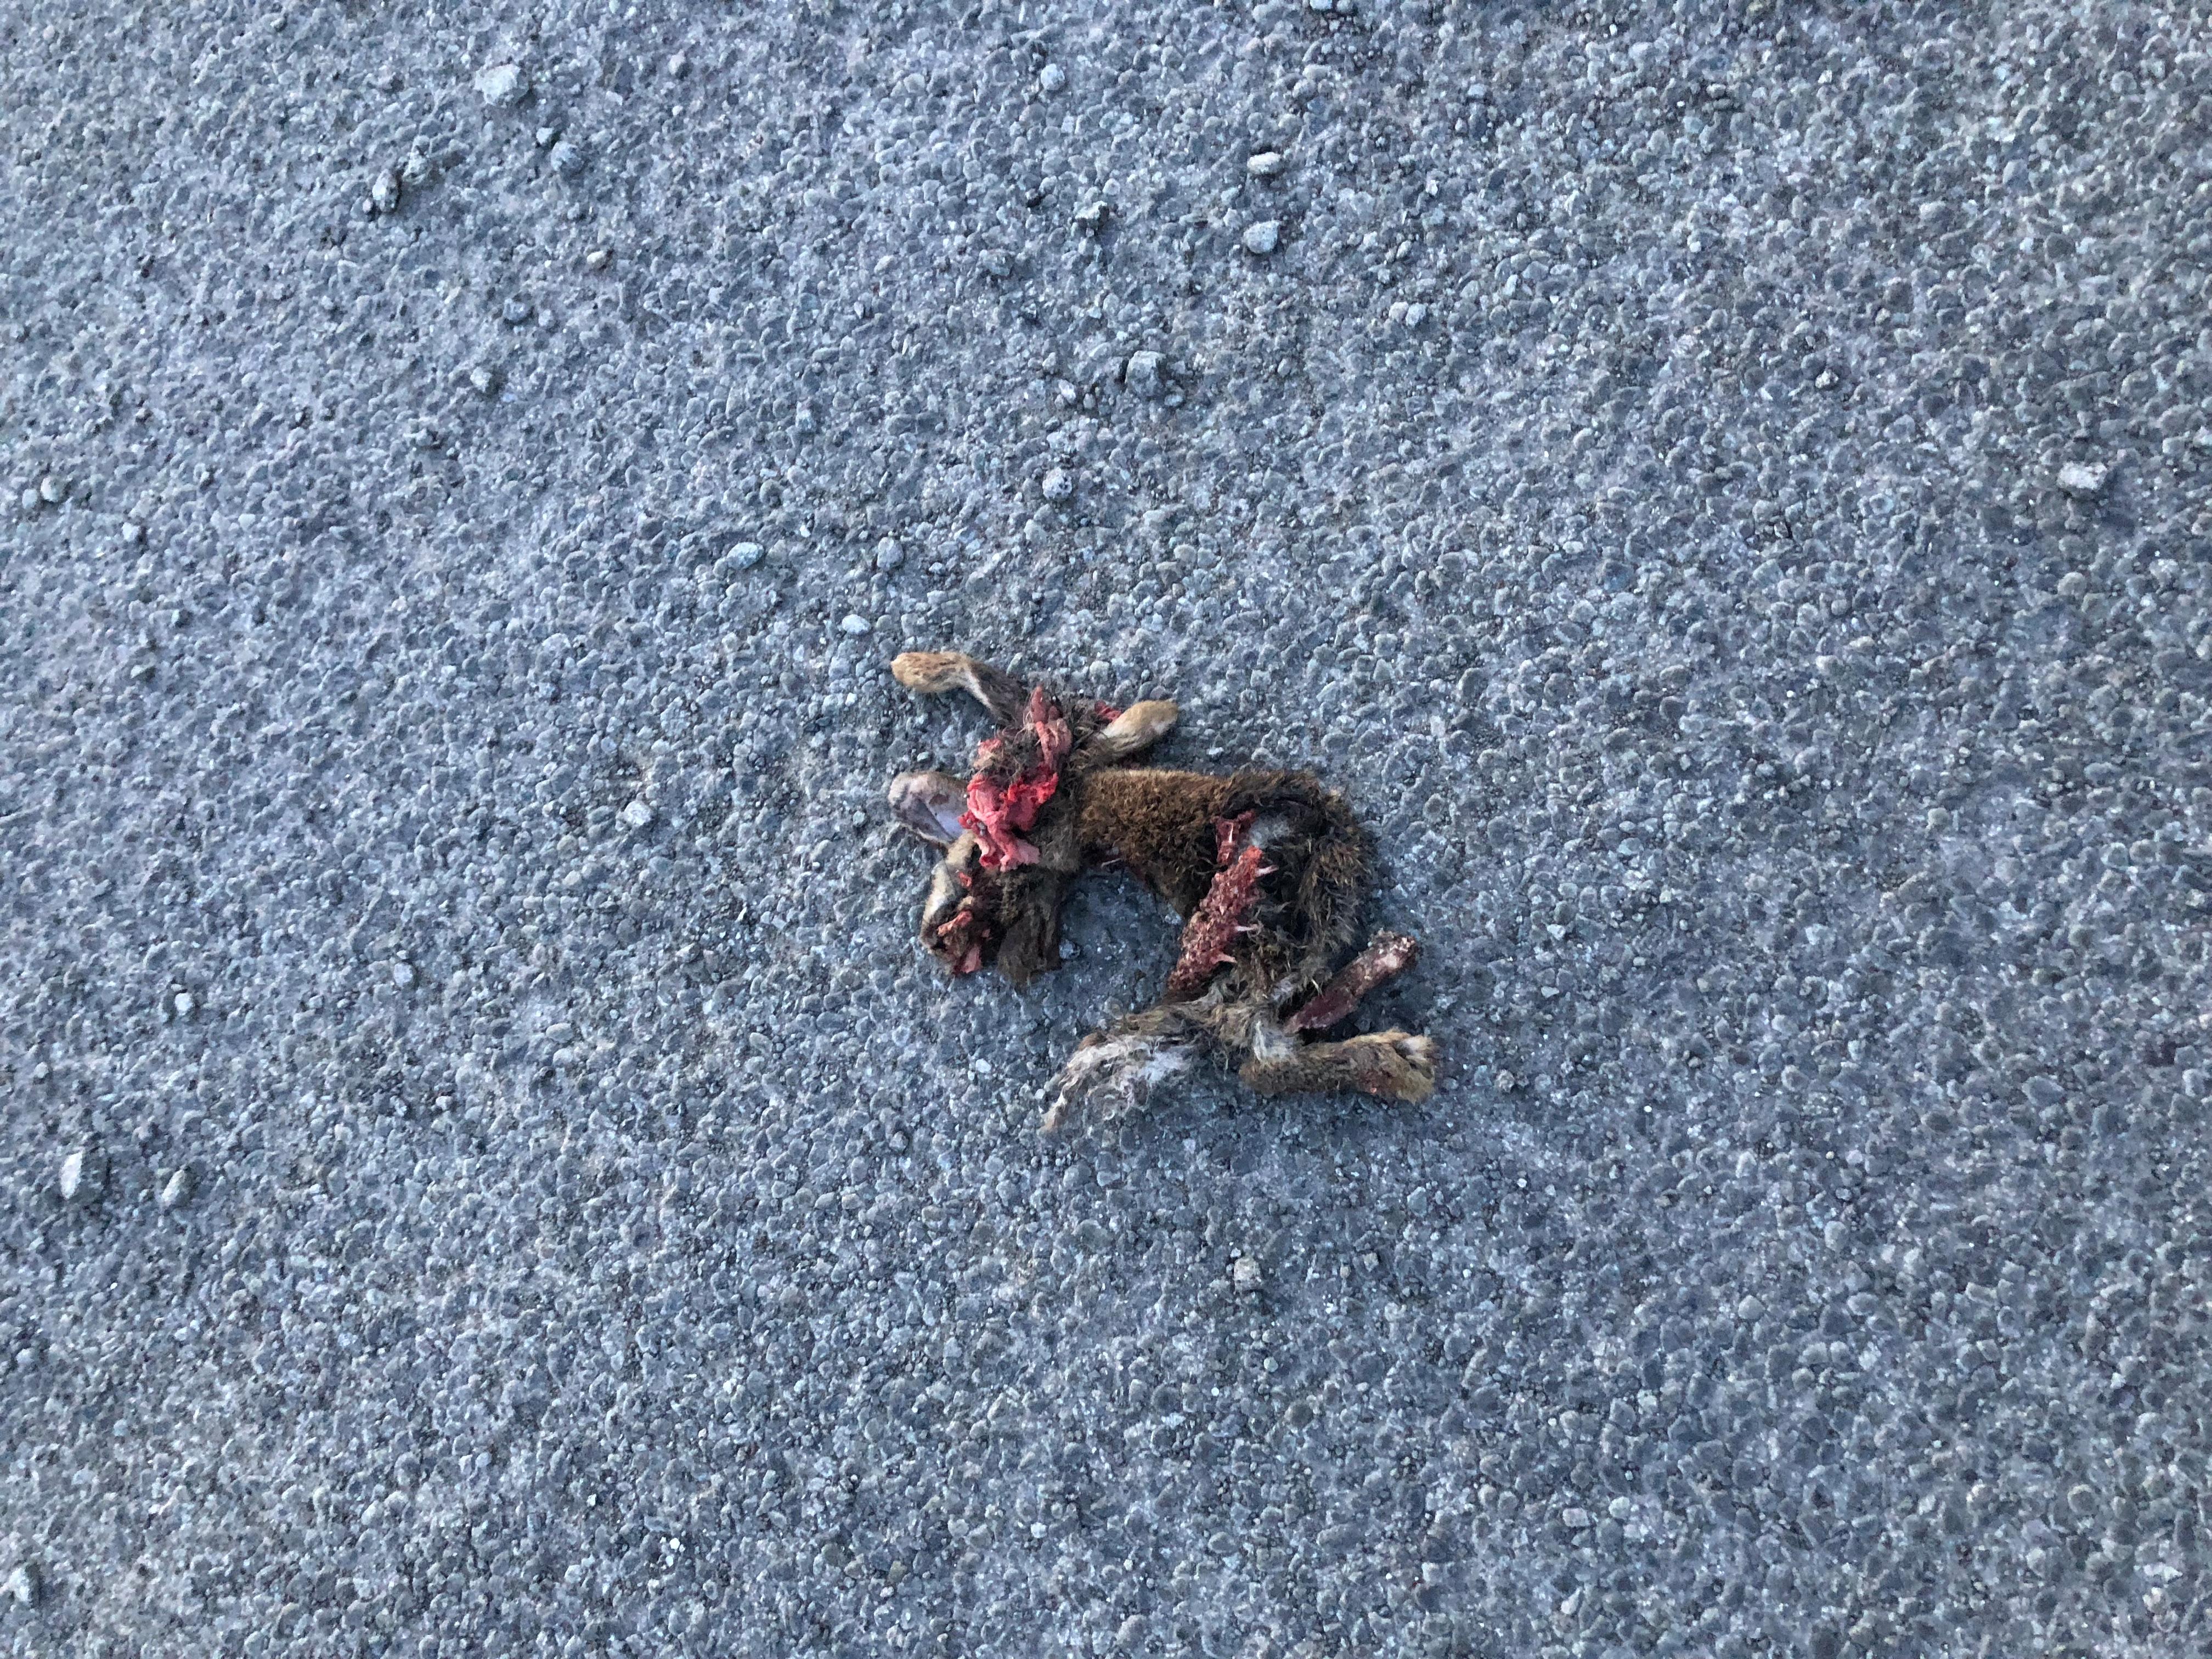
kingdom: Animalia
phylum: Chordata
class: Mammalia
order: Lagomorpha
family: Leporidae
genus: Lepus
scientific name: Lepus europaeus
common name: European hare
